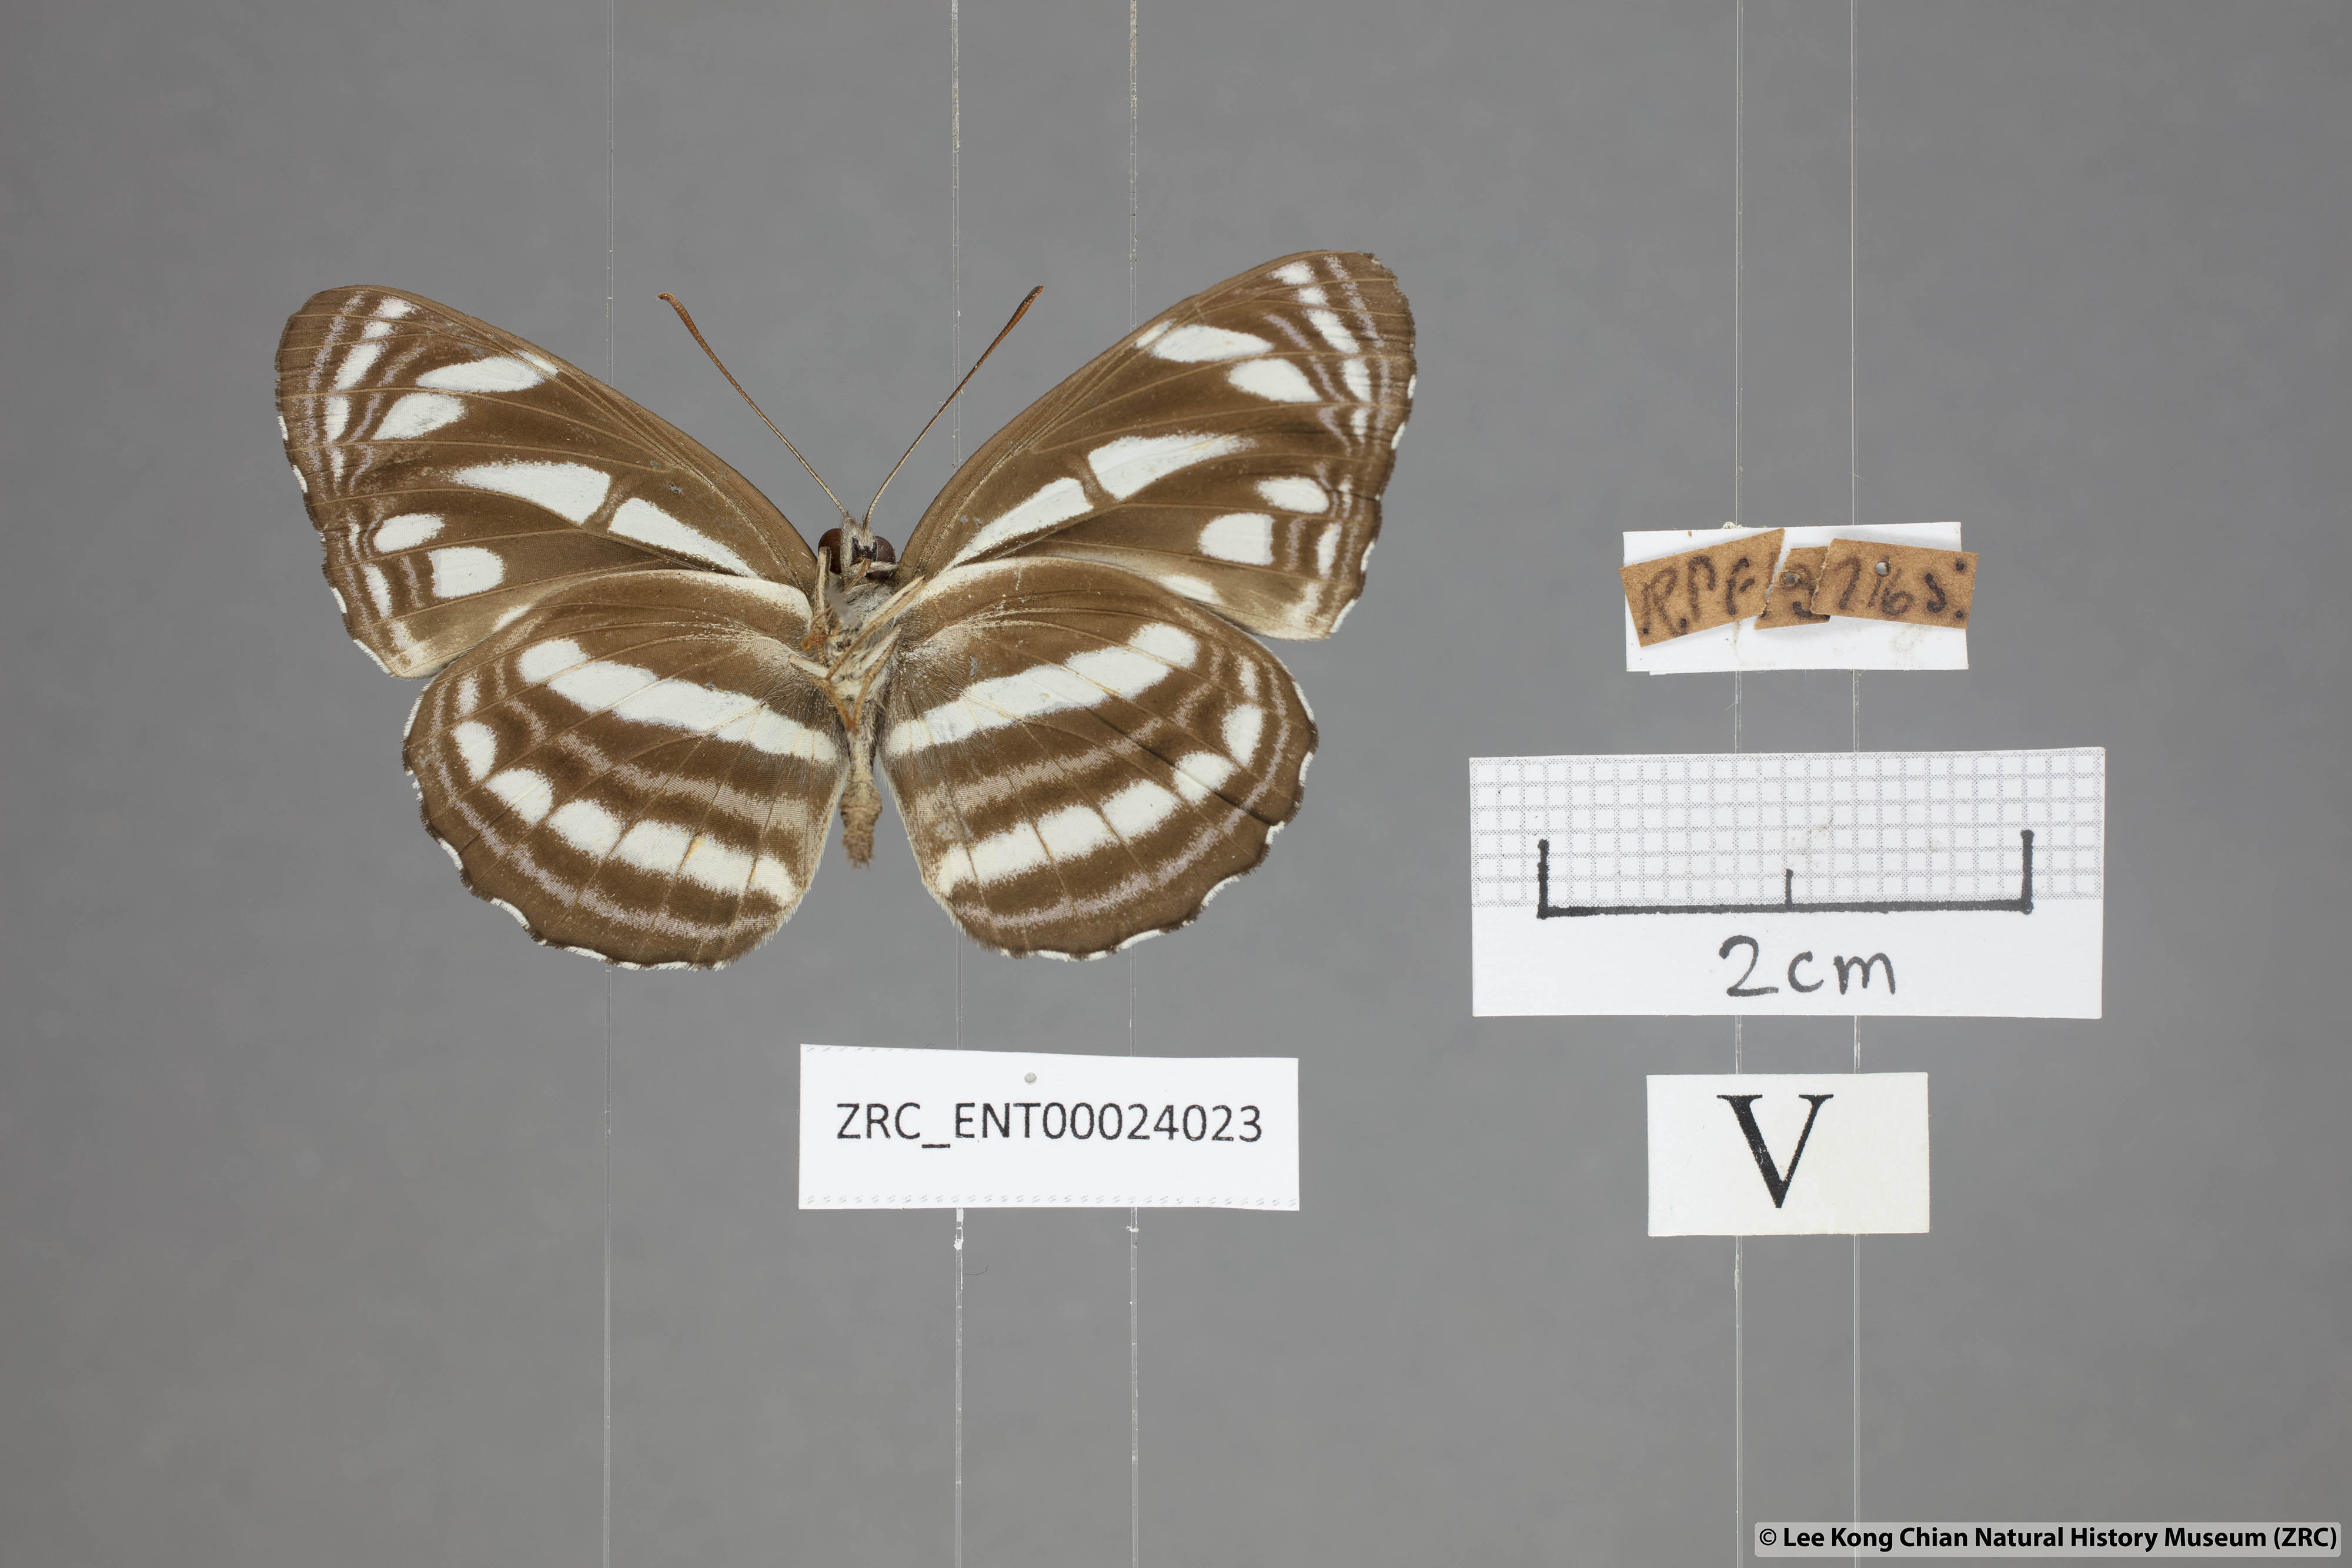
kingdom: Animalia
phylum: Arthropoda
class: Insecta
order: Lepidoptera
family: Nymphalidae
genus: Neptis
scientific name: Neptis leucoporus
